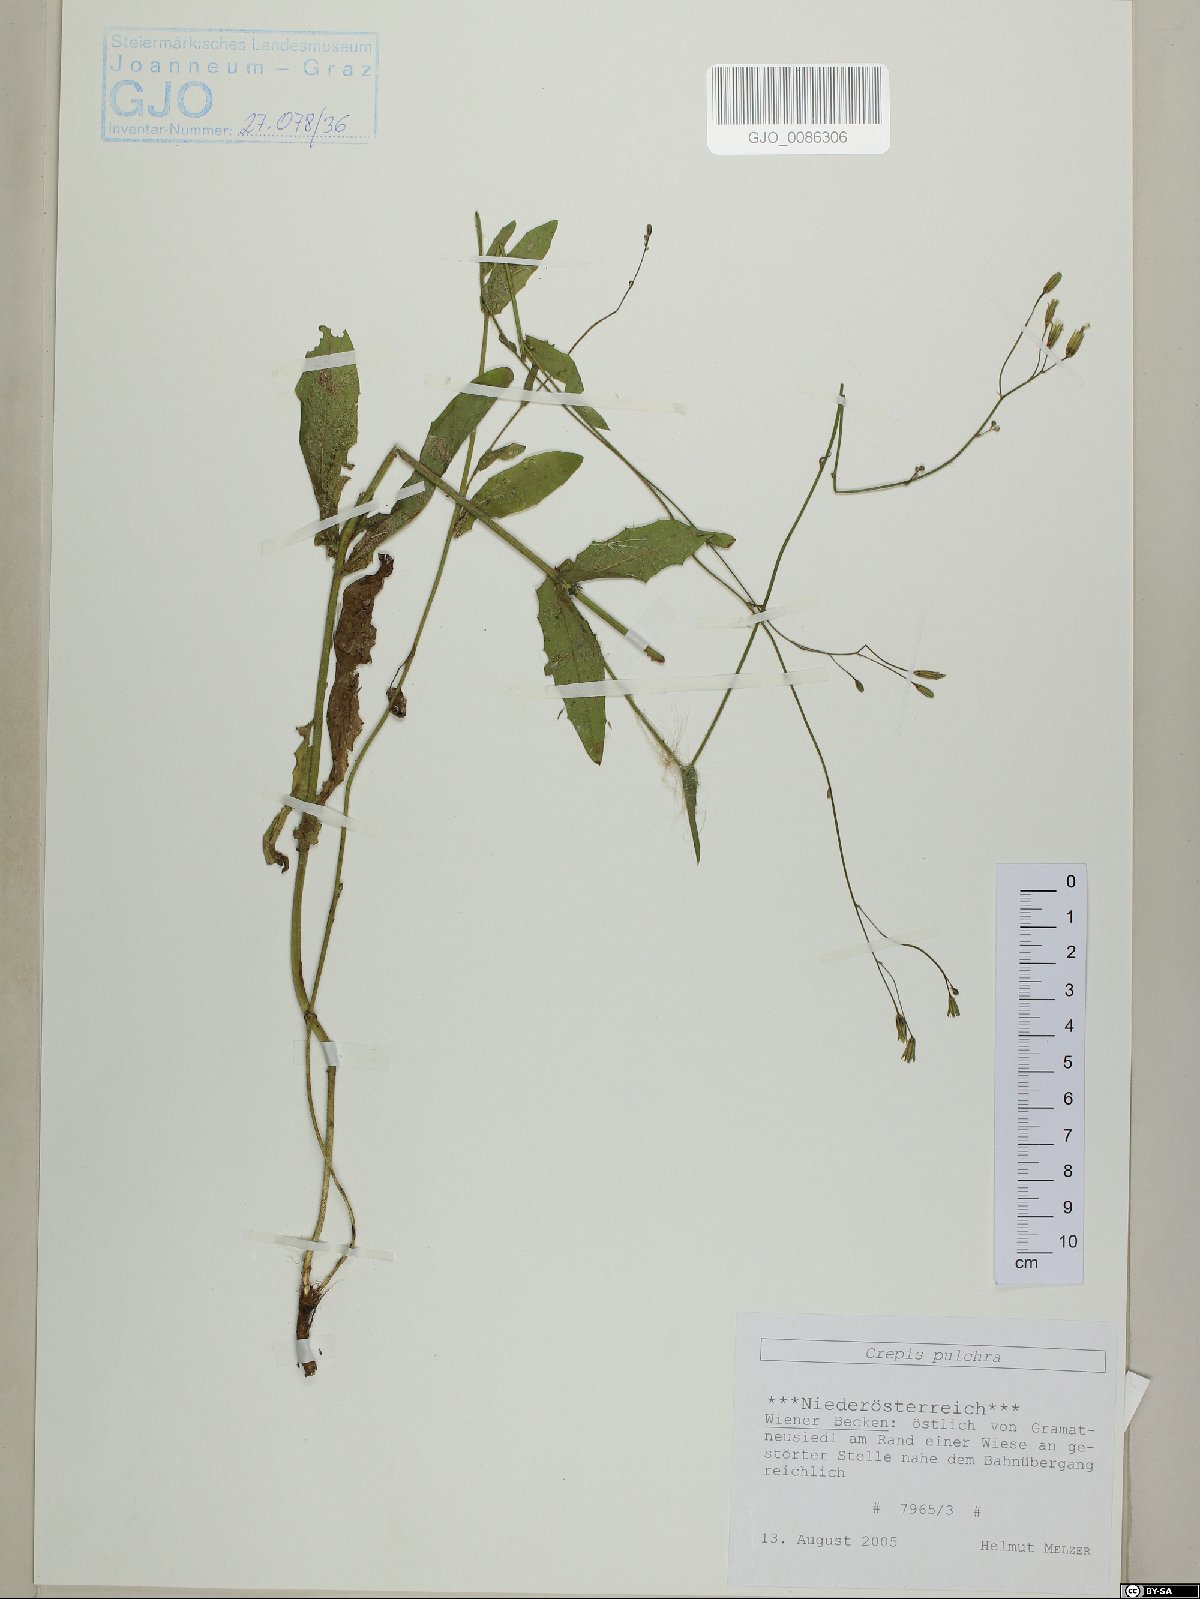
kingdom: Plantae
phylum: Tracheophyta
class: Magnoliopsida
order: Asterales
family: Asteraceae
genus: Crepis
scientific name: Crepis pulchra
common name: Hawk's-beard
